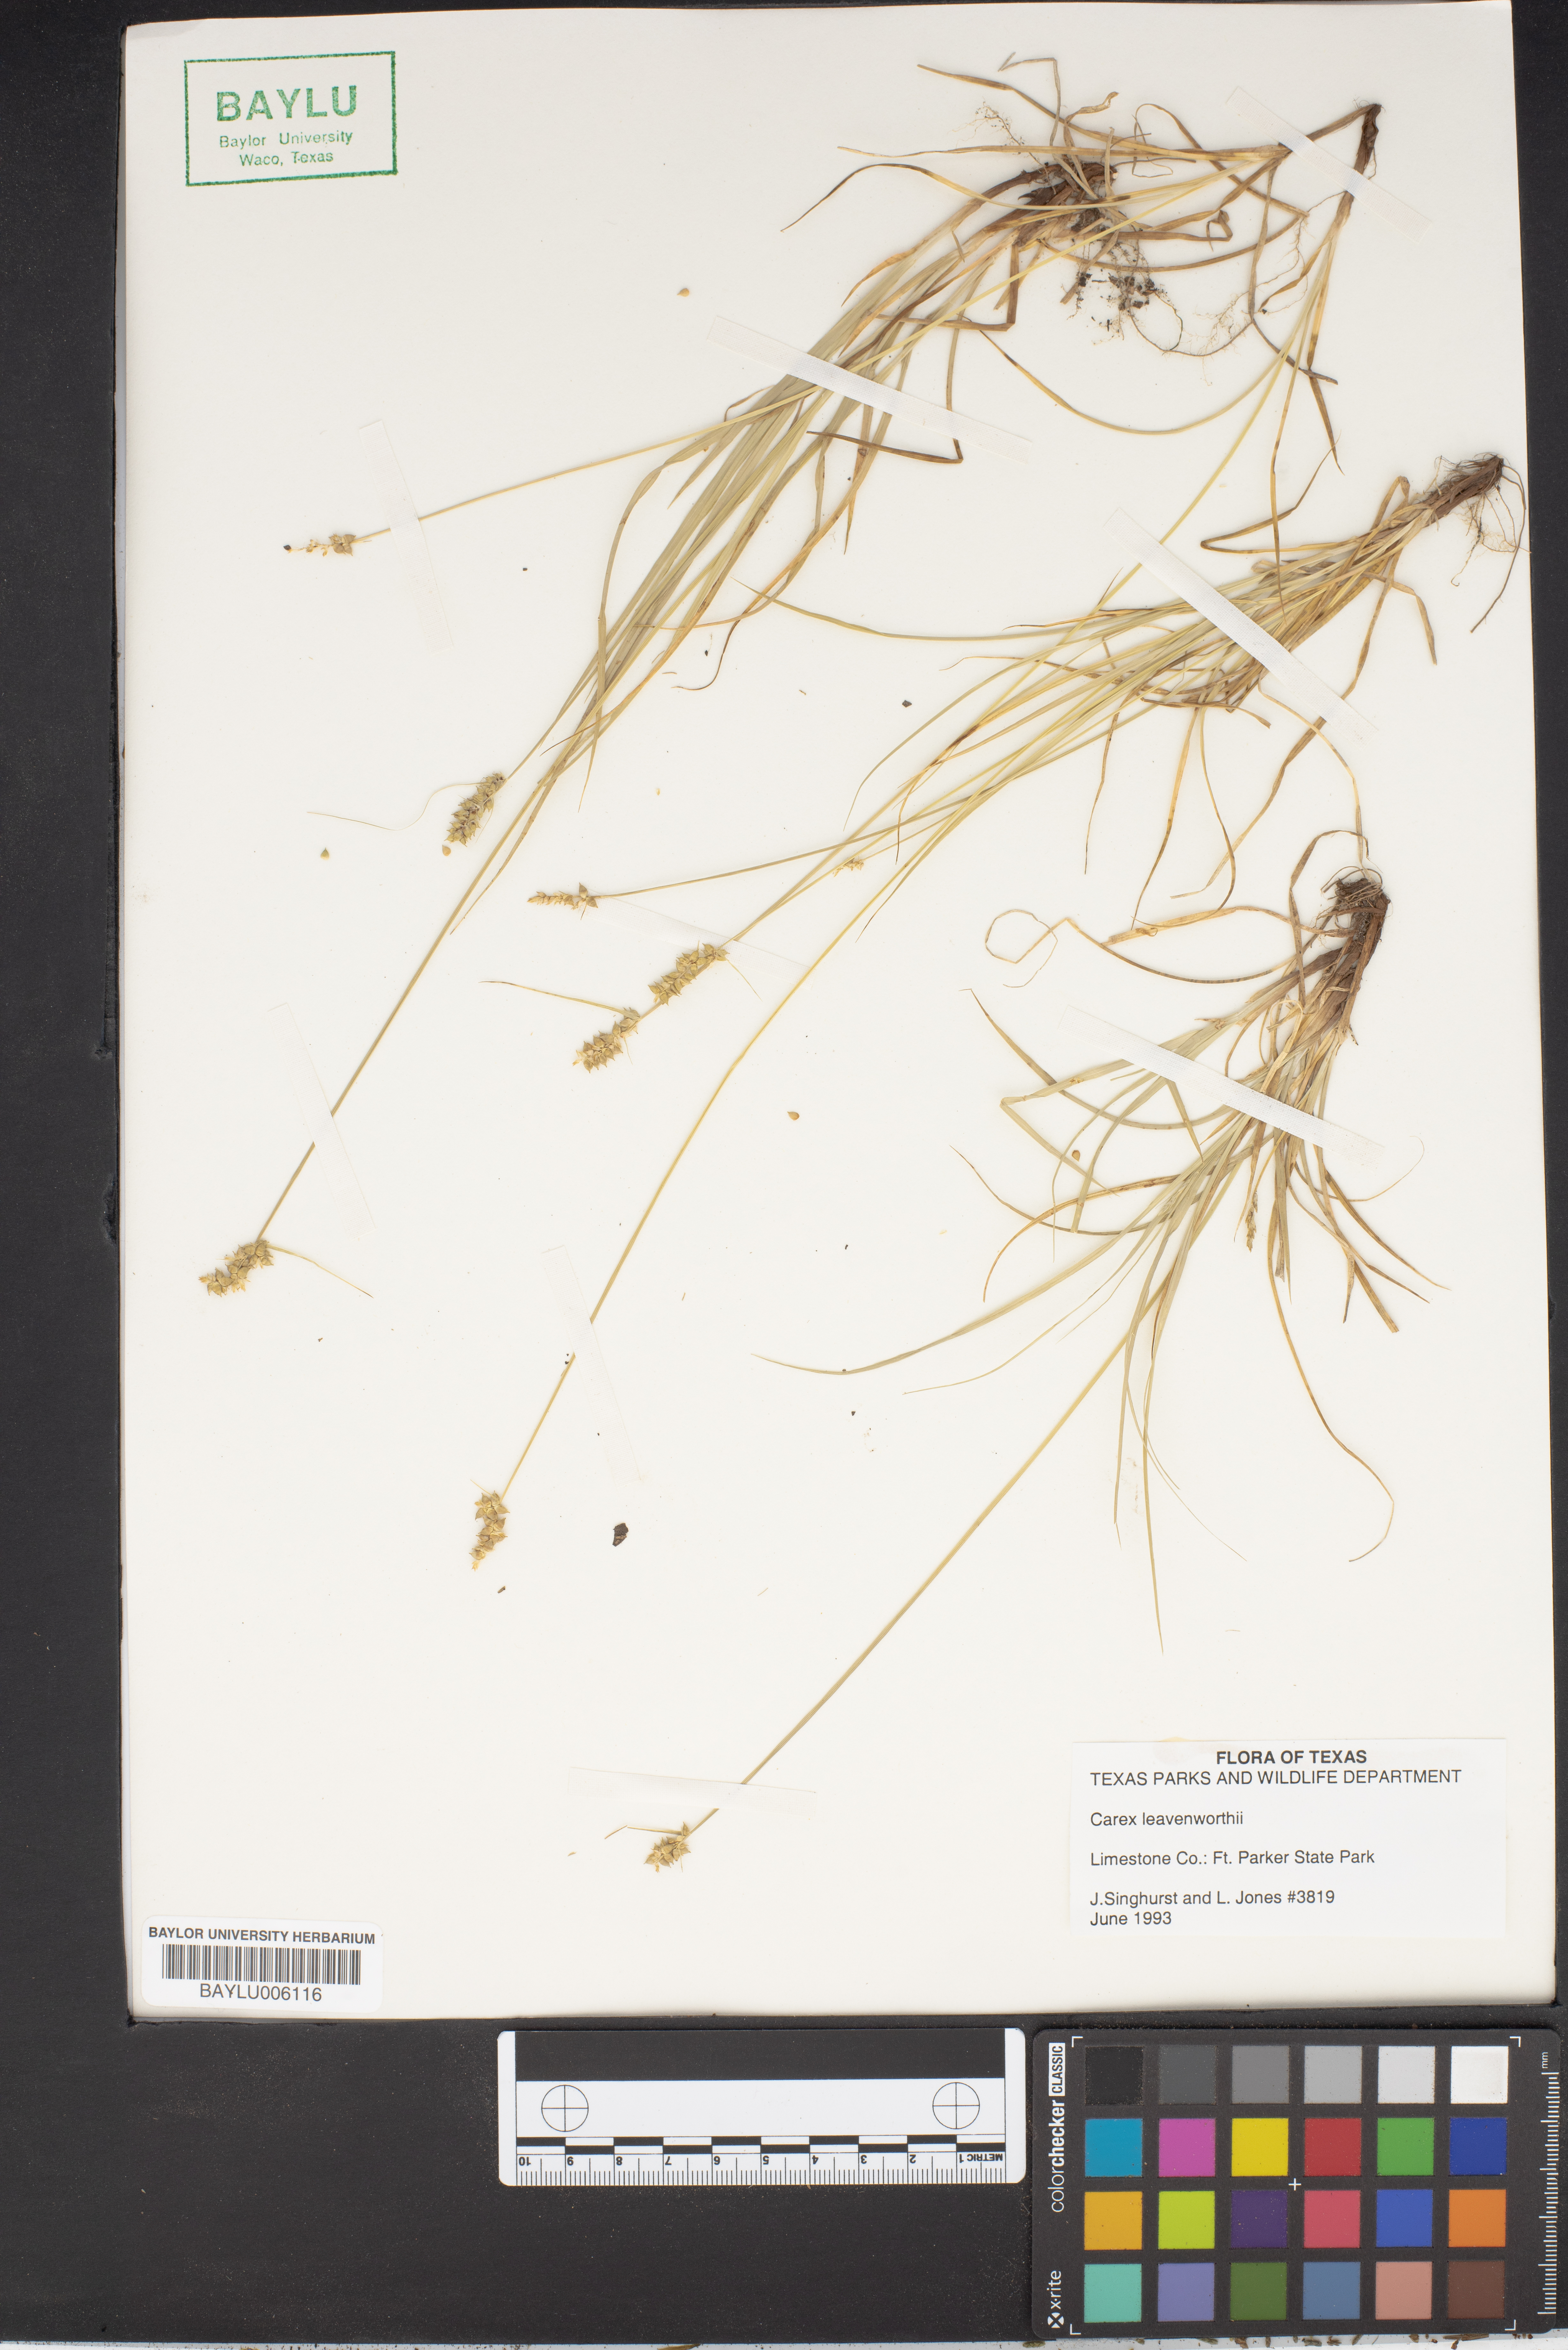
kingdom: Plantae
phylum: Tracheophyta
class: Liliopsida
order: Poales
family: Cyperaceae
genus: Carex
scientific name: Carex leavenworthii
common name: Leavenworth's bracted sedge
